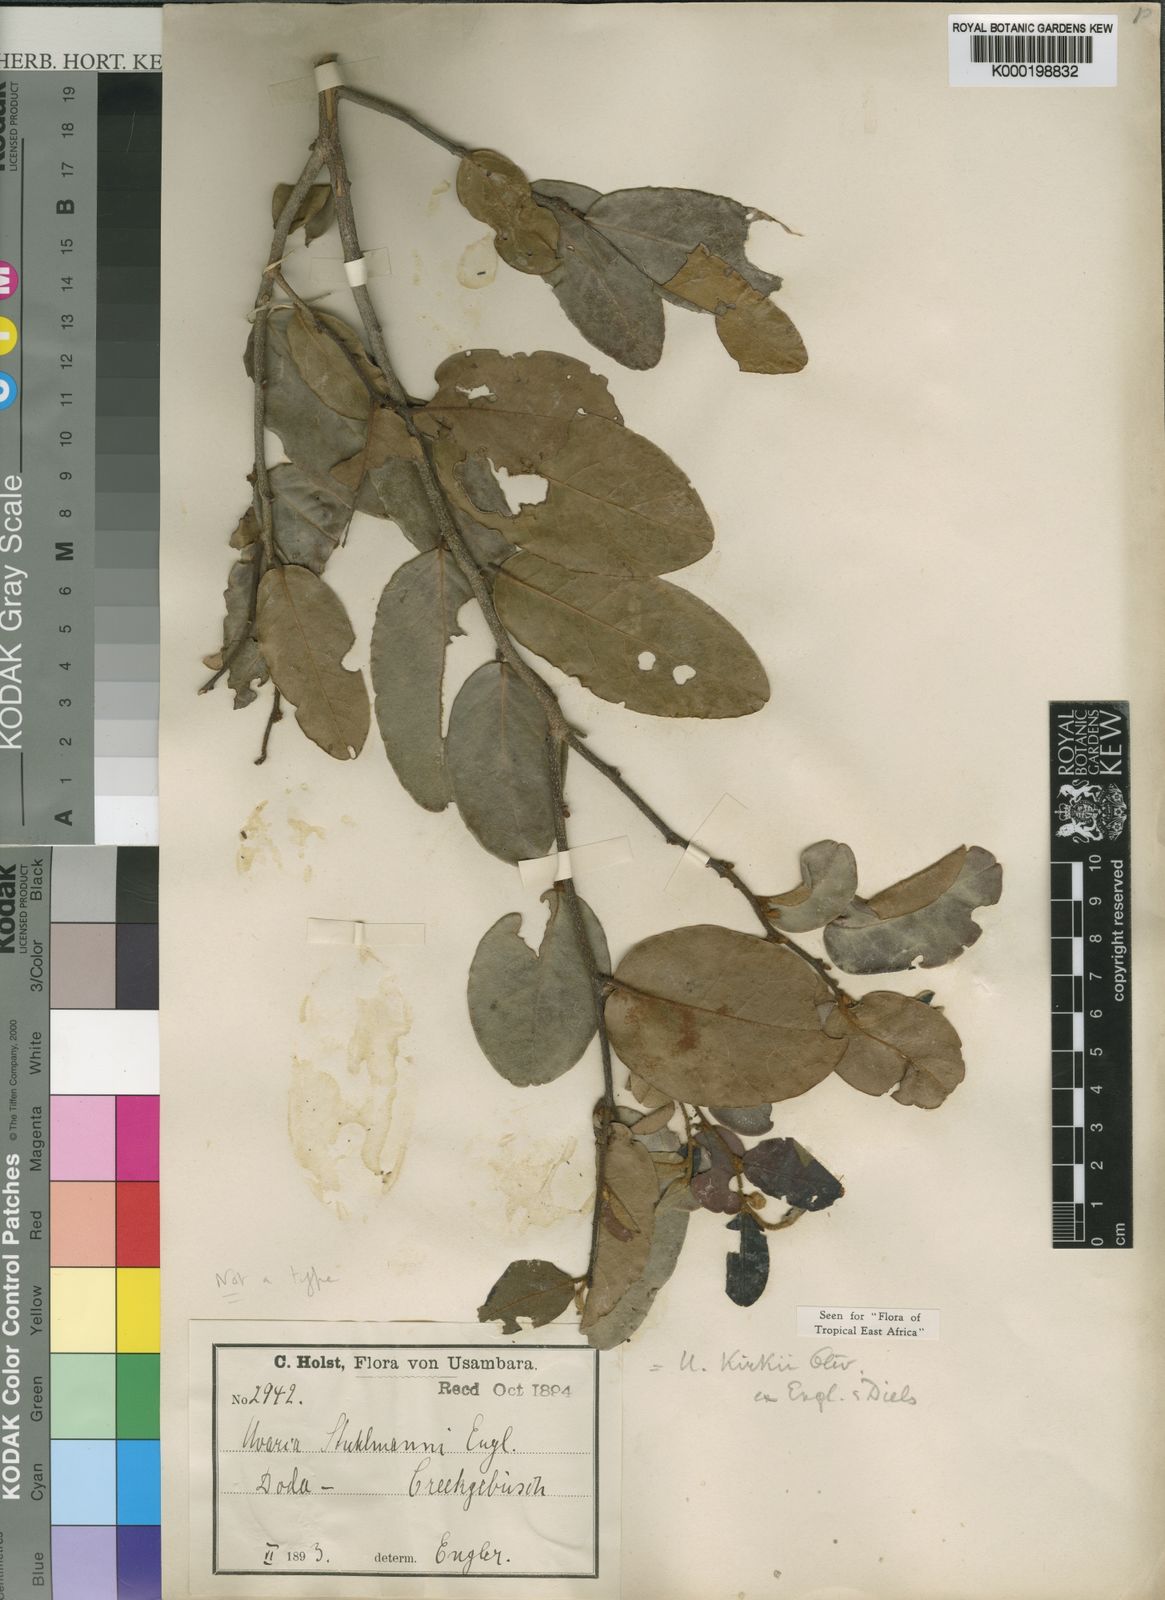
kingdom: Plantae
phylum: Tracheophyta
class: Magnoliopsida
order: Magnoliales
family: Annonaceae
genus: Uvaria
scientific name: Uvaria
